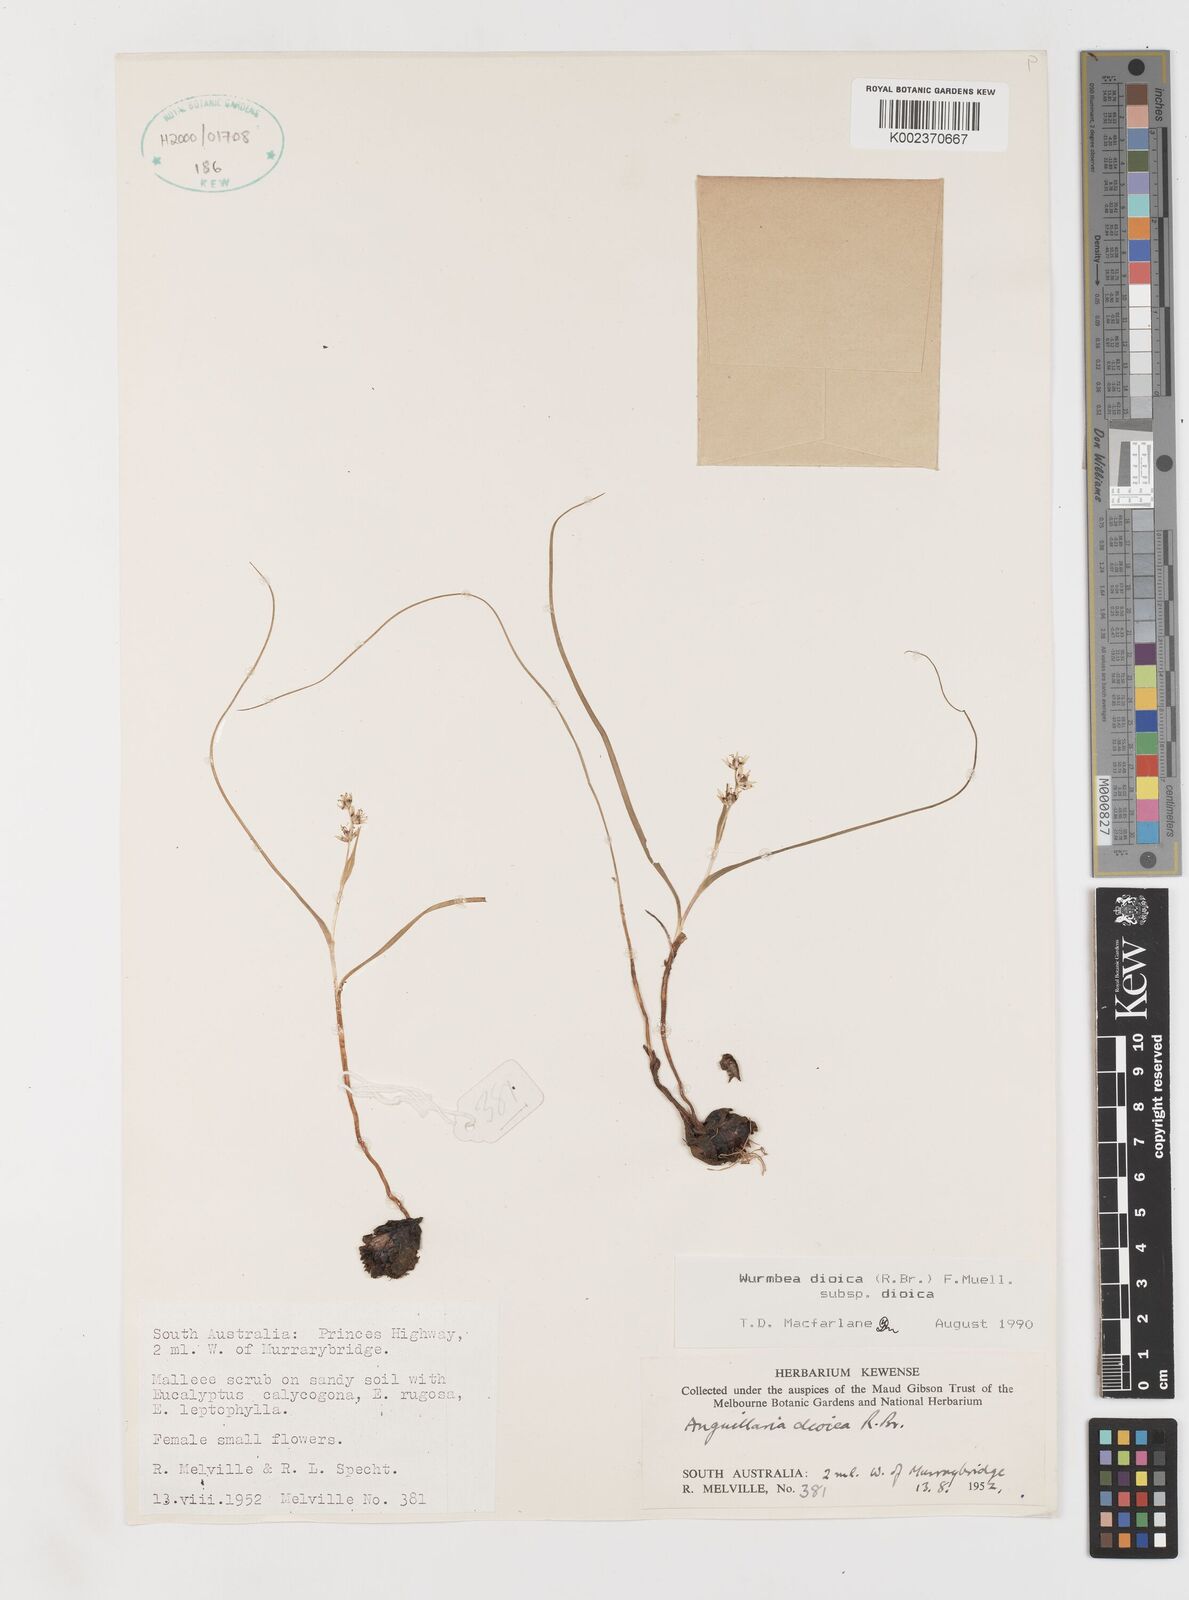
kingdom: Plantae
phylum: Tracheophyta
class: Liliopsida
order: Liliales
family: Colchicaceae
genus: Wurmbea
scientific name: Wurmbea dioica
